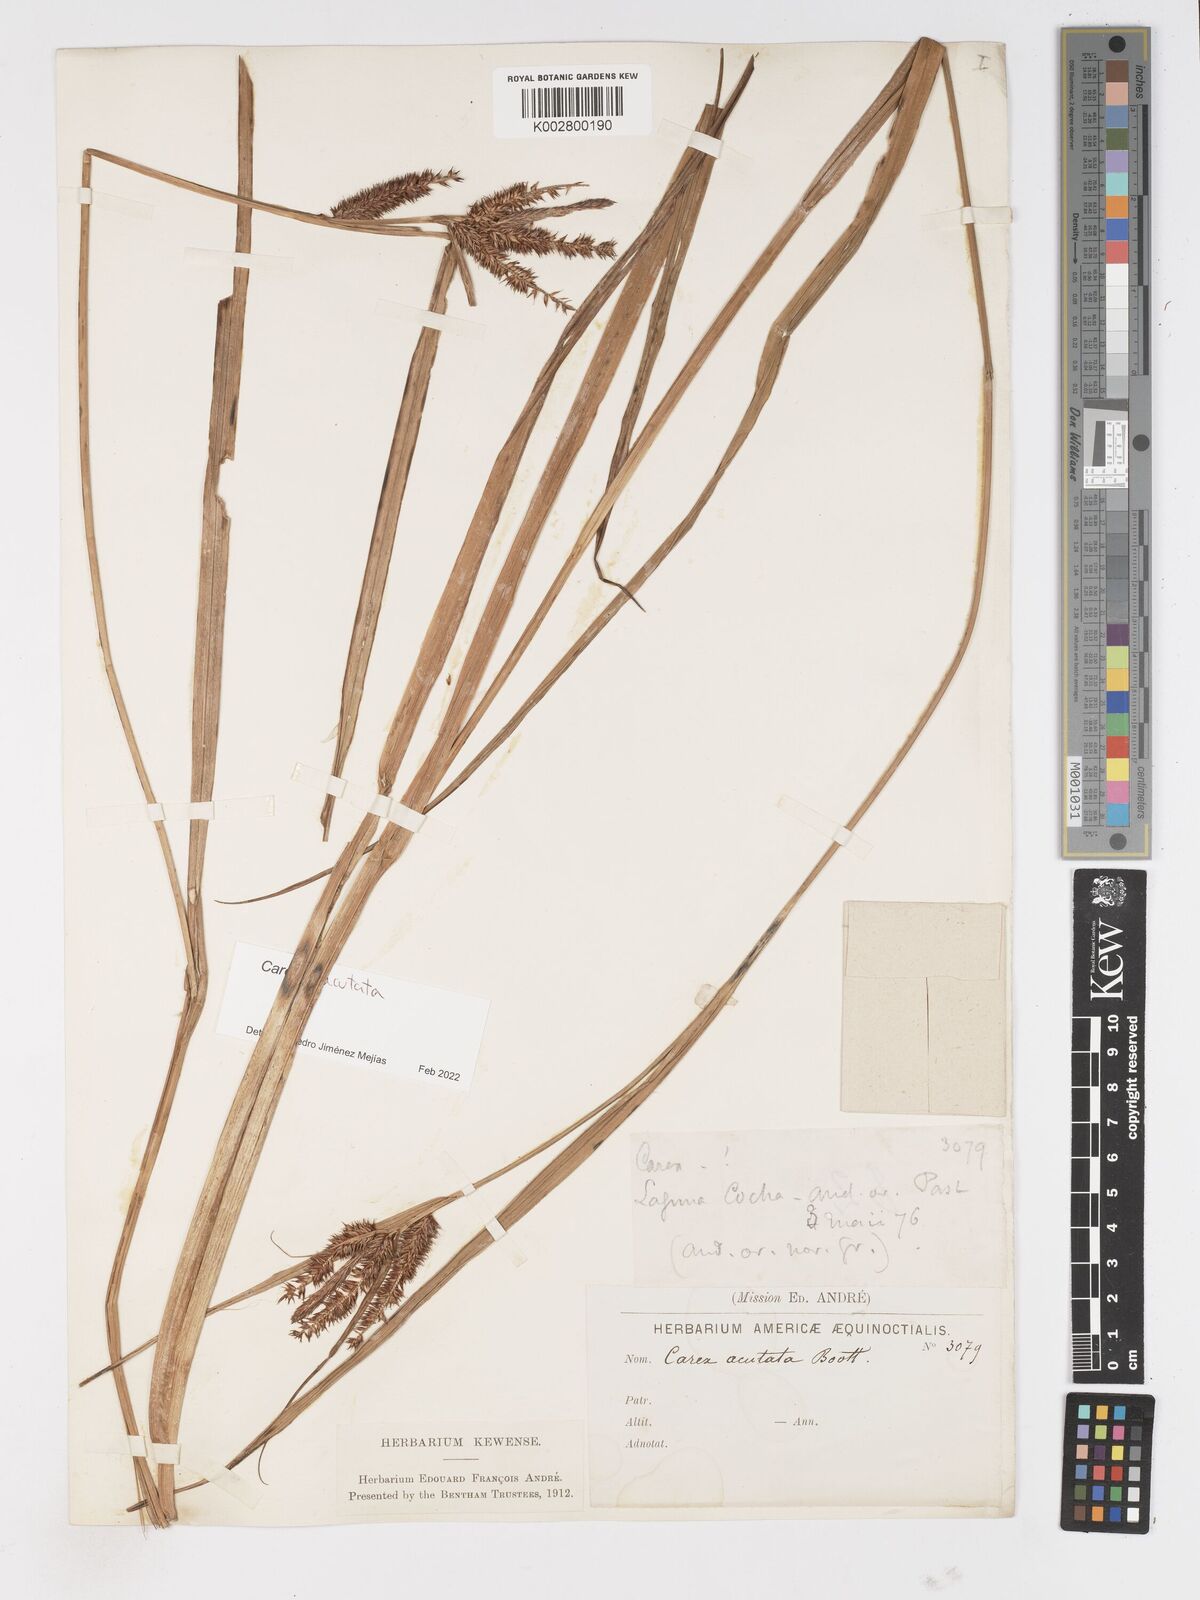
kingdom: Plantae
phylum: Tracheophyta
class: Liliopsida
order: Poales
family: Cyperaceae
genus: Carex
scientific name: Carex acutata
